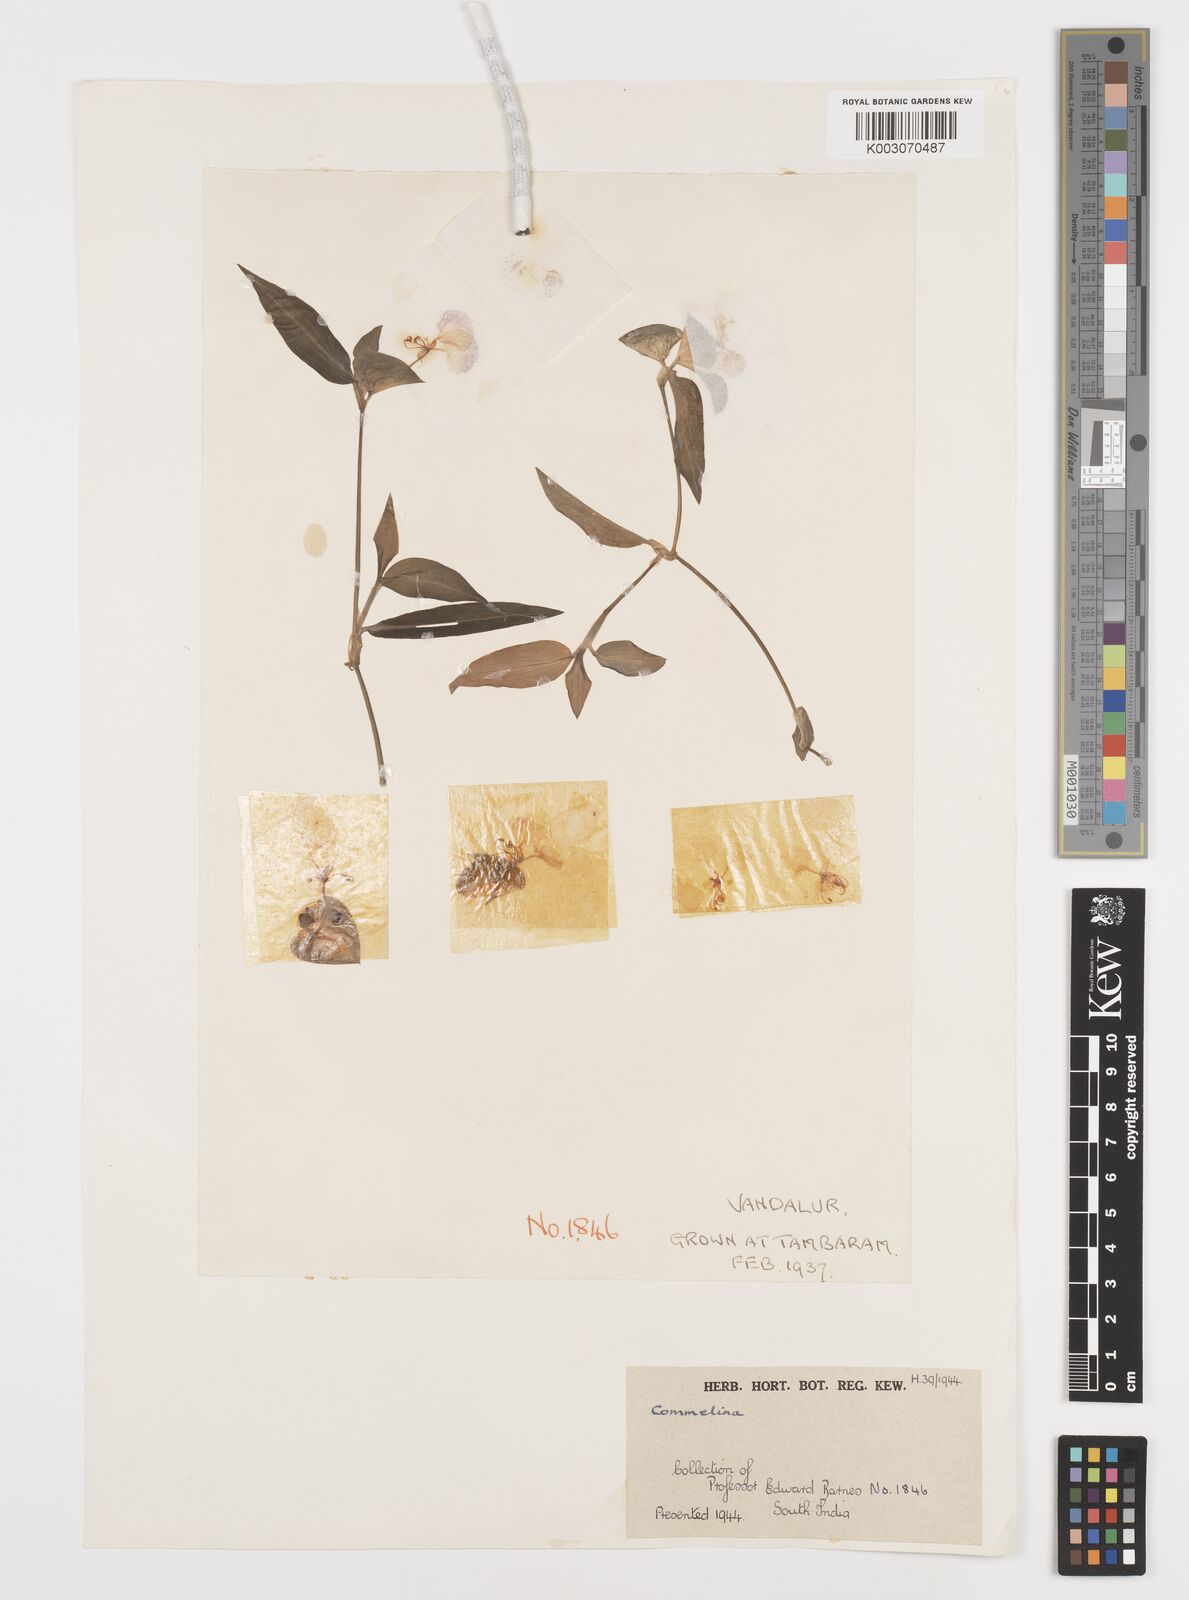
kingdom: Plantae
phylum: Tracheophyta
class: Liliopsida
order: Commelinales
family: Commelinaceae
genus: Commelina
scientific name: Commelina
